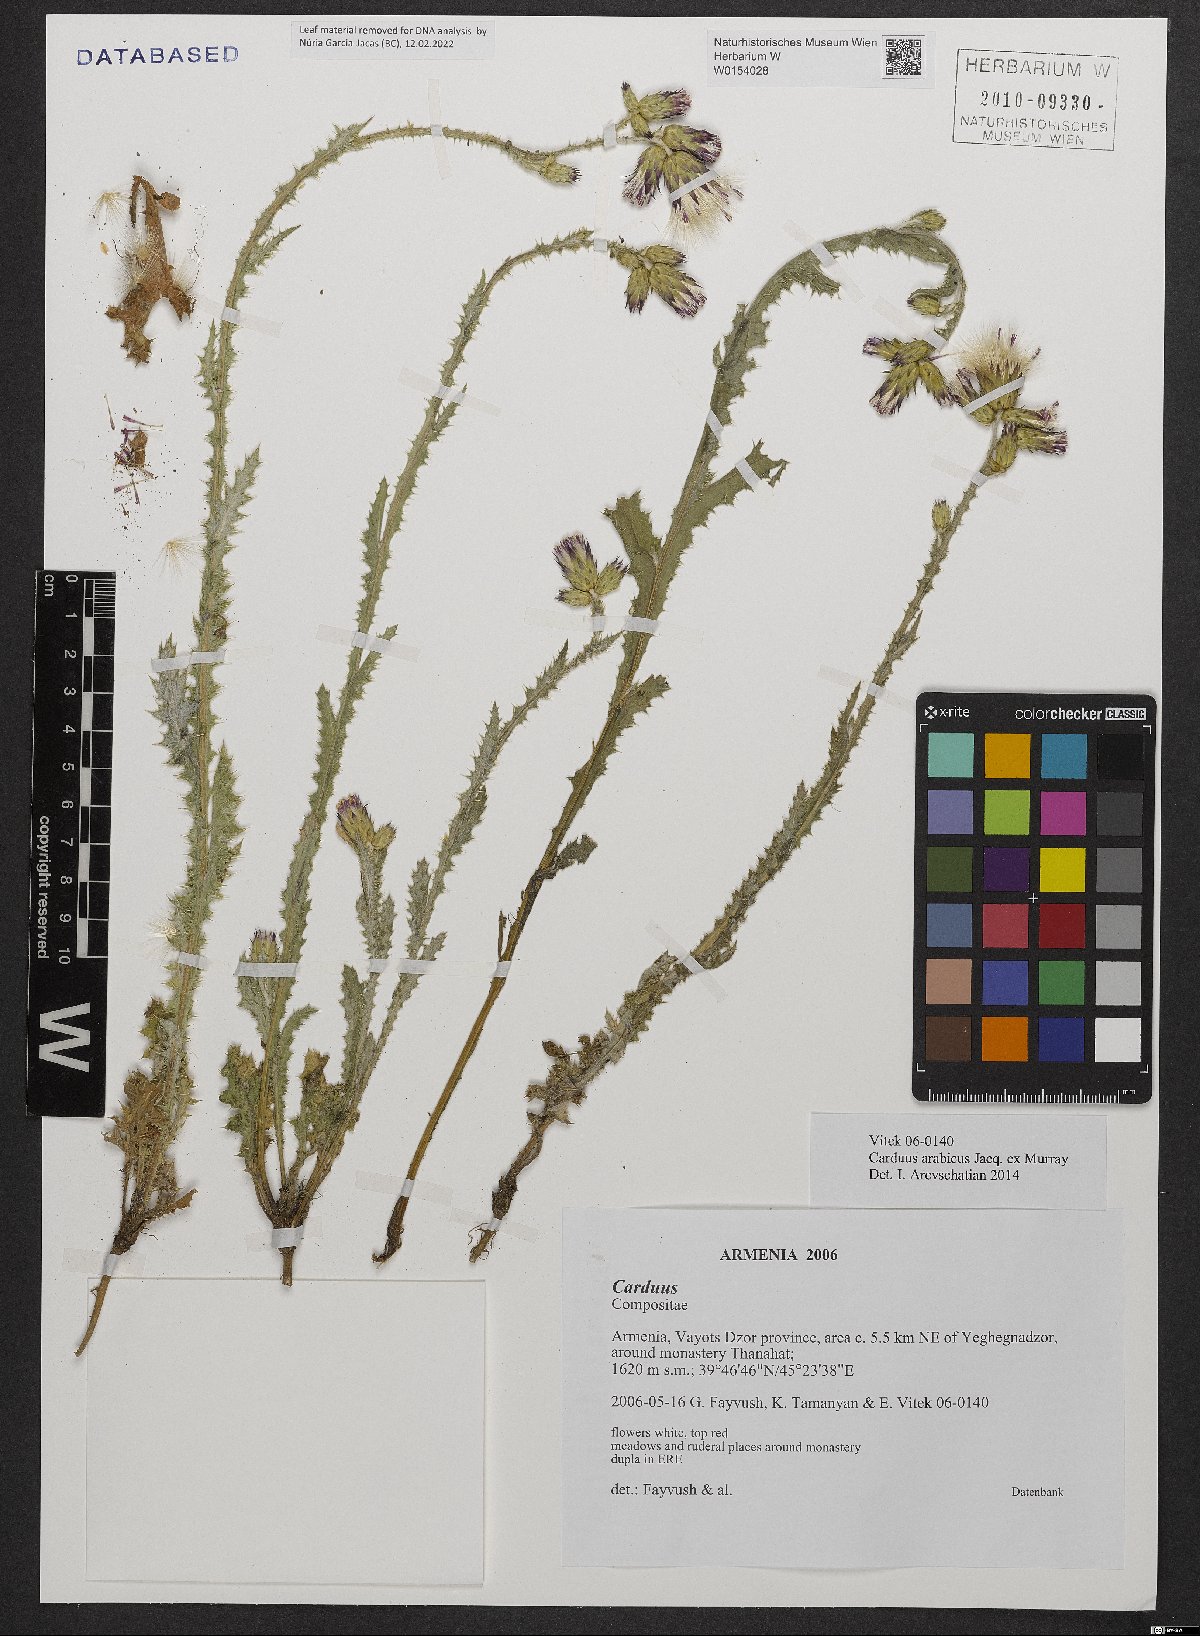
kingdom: Plantae
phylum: Tracheophyta
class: Magnoliopsida
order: Asterales
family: Asteraceae
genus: Carduus
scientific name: Carduus arabicus
